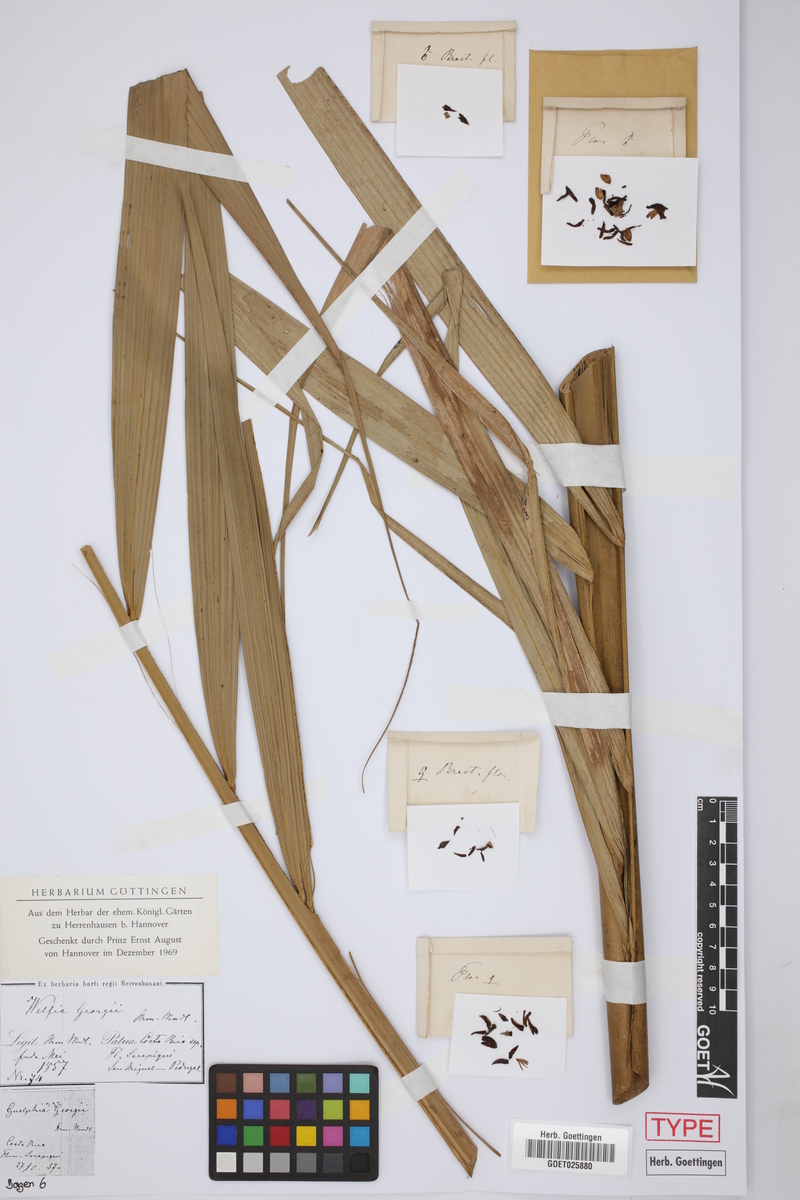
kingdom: Plantae
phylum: Tracheophyta
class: Liliopsida
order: Arecales
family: Arecaceae
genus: Welfia
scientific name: Welfia regia
